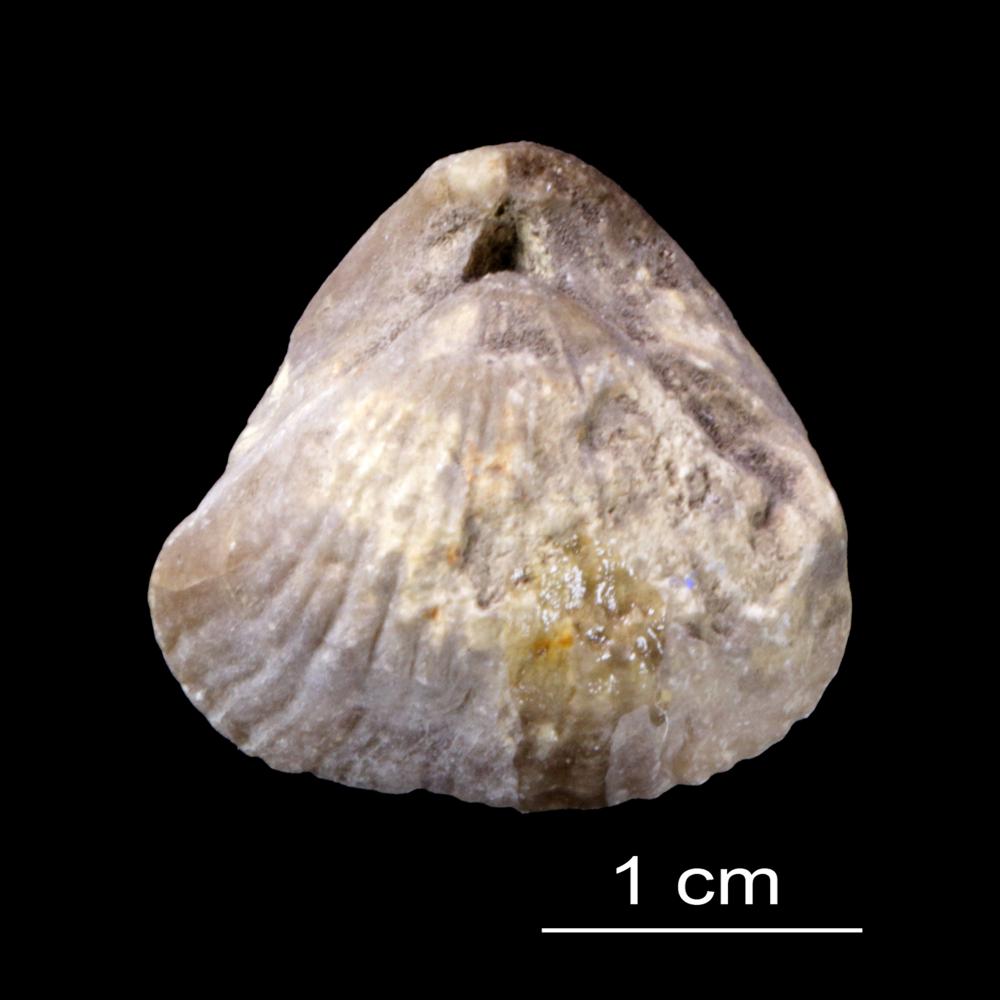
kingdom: Animalia
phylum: Brachiopoda
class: Rhynchonellata
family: Pentameridae
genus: Pentamerus
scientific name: Pentamerus
